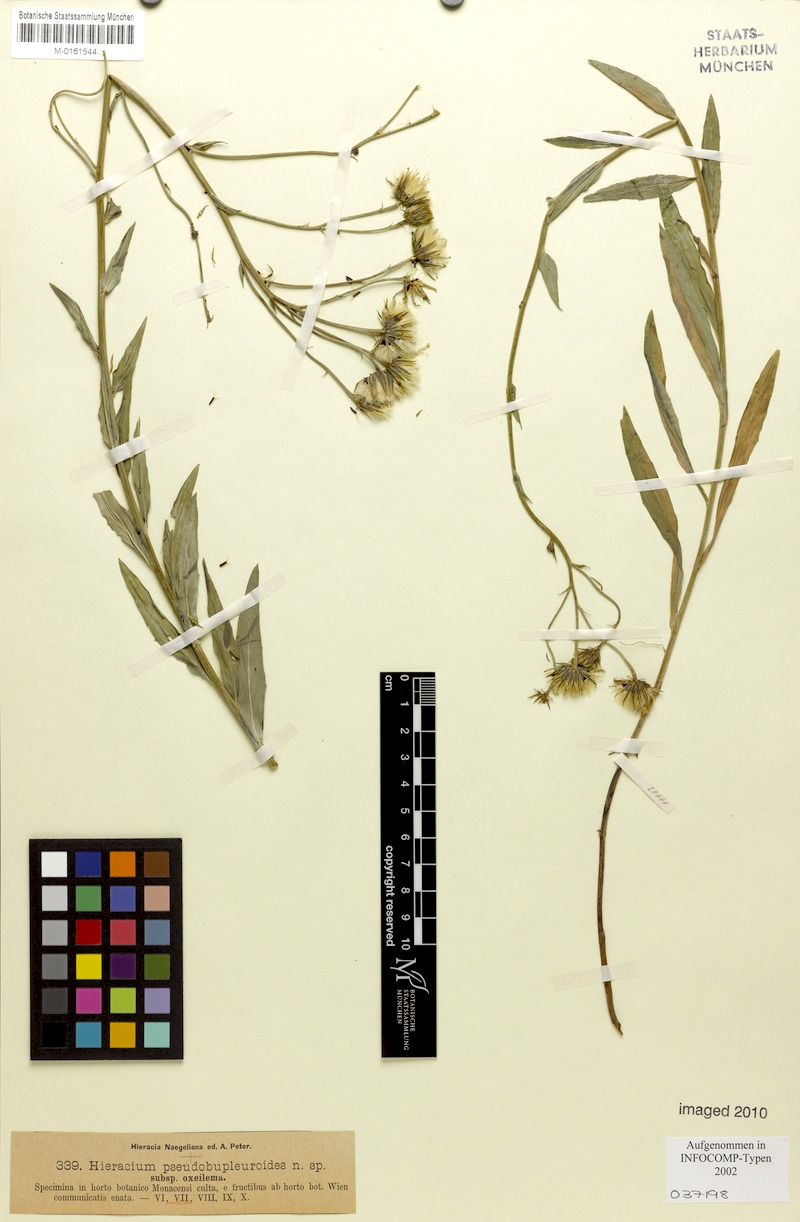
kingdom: Plantae
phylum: Tracheophyta
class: Magnoliopsida
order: Asterales
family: Asteraceae
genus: Hieracium
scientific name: Hieracium vindobonense
